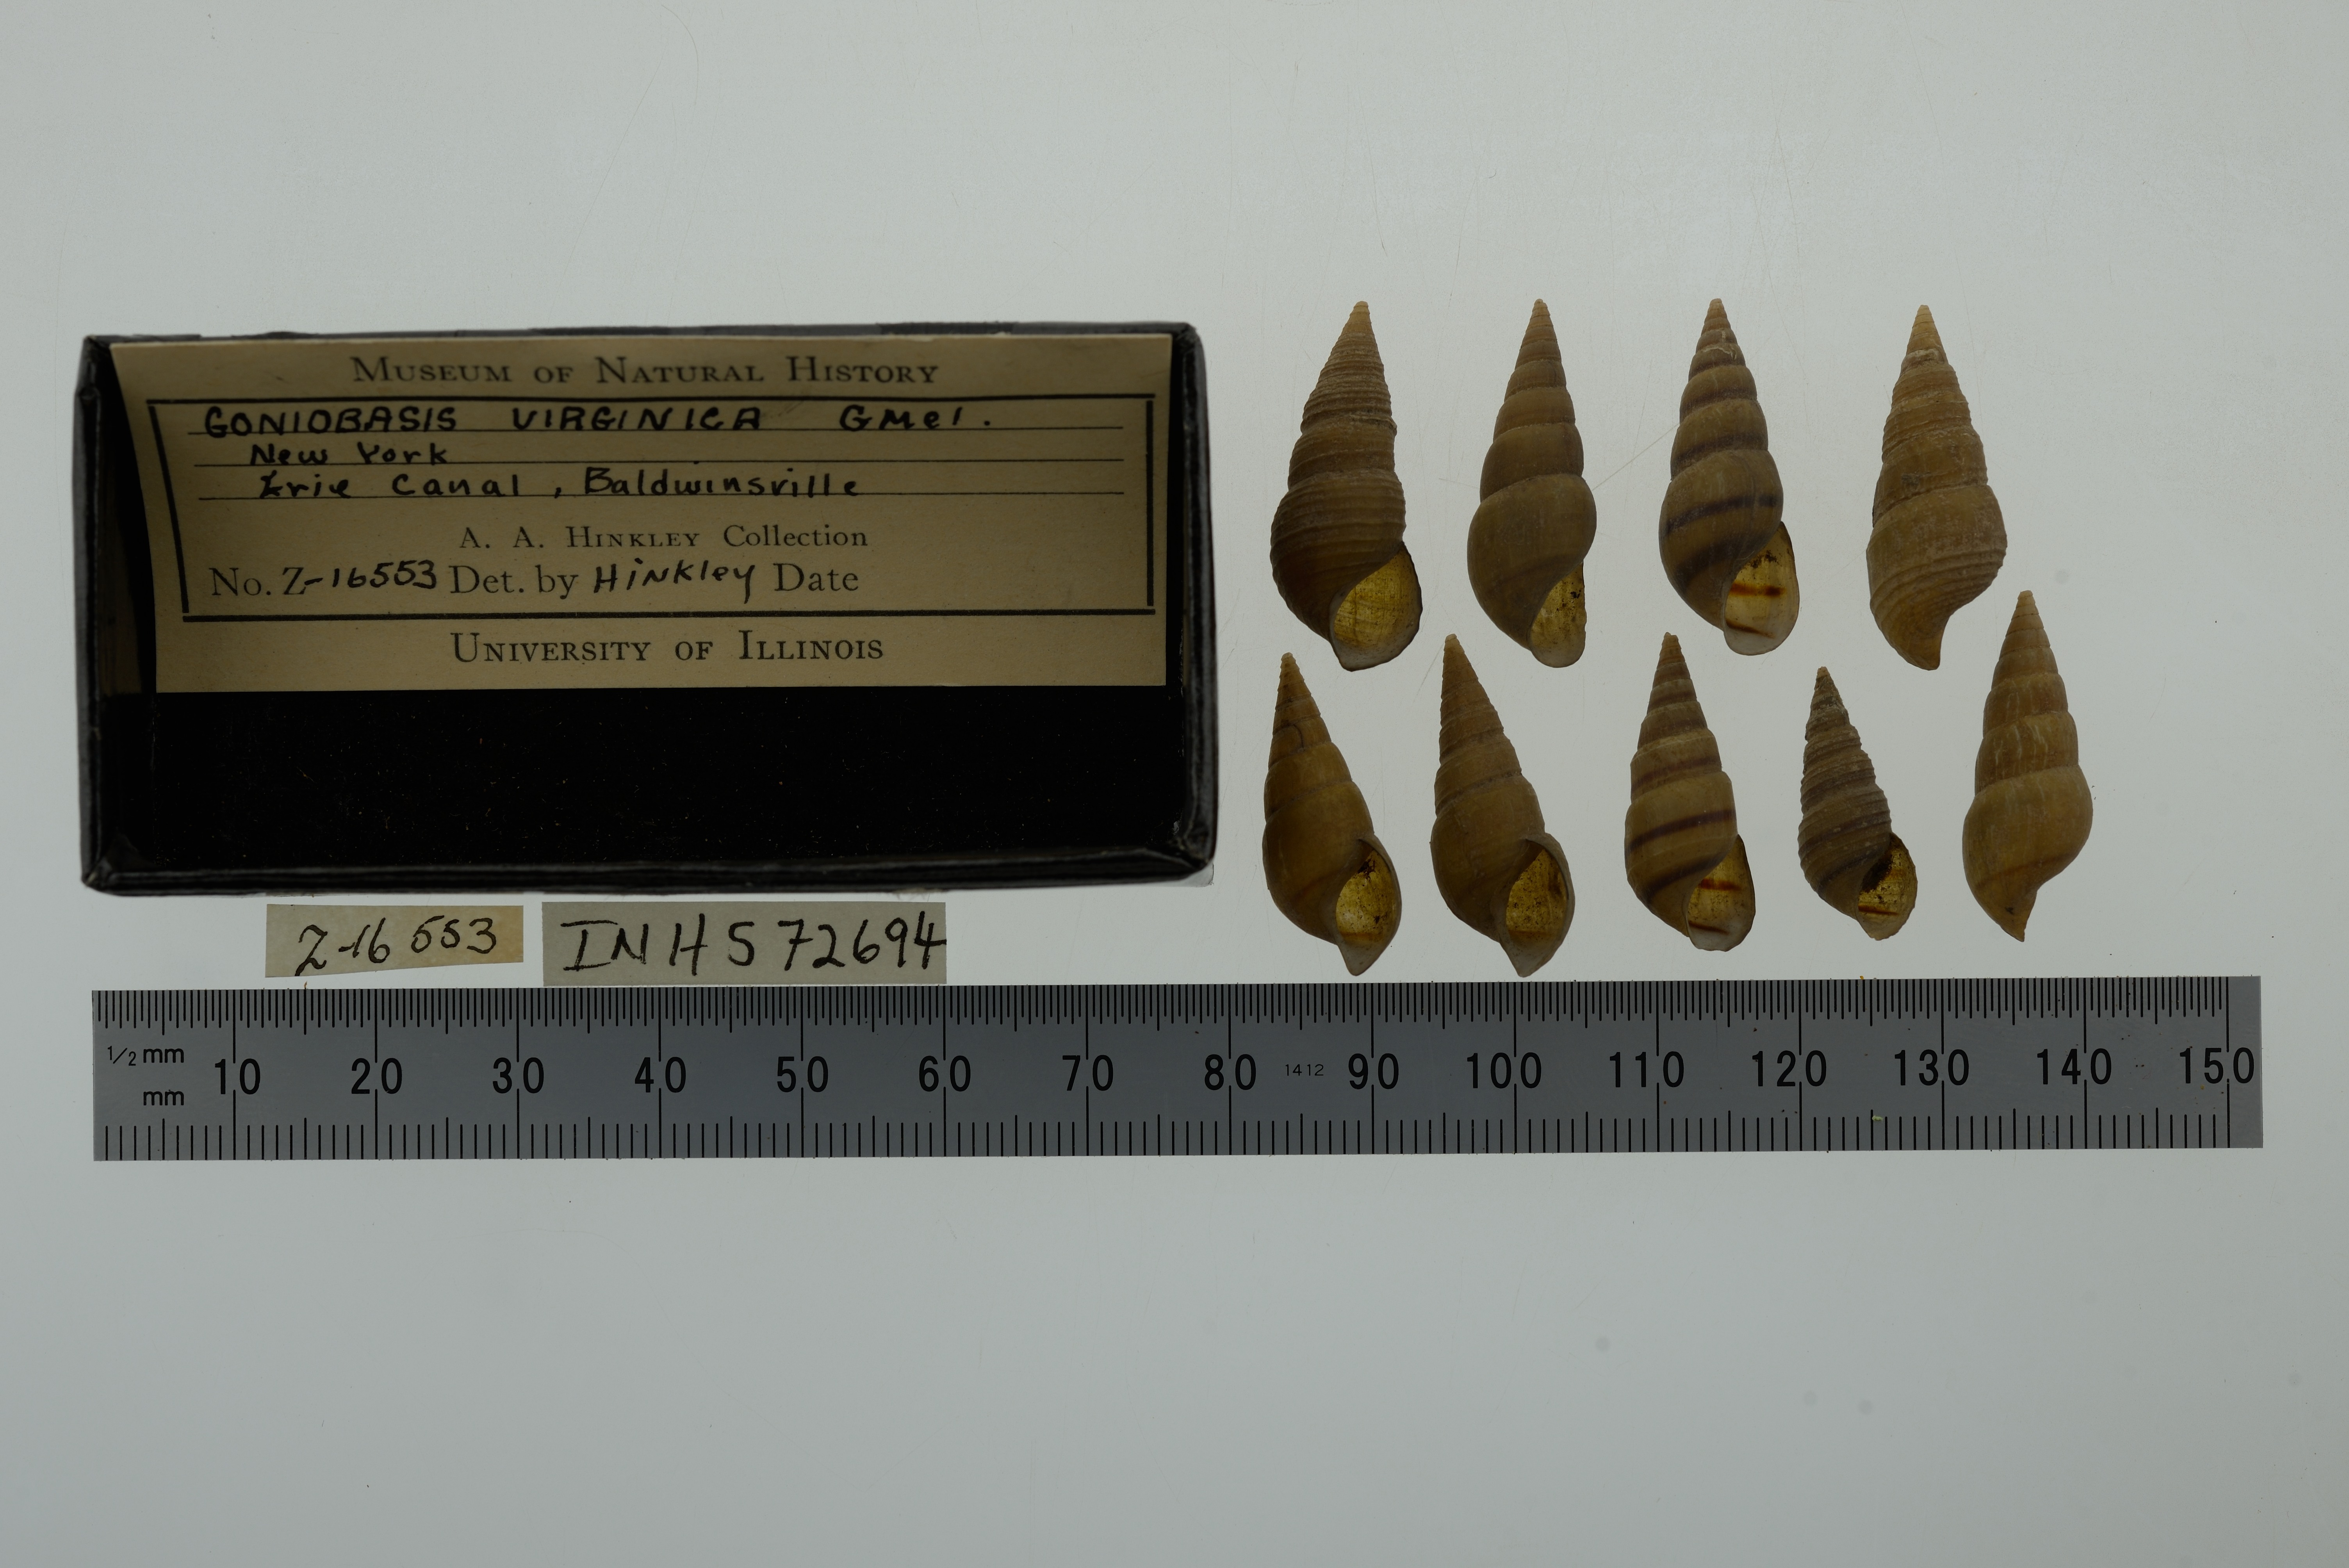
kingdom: Animalia
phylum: Mollusca
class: Gastropoda
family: Pleuroceridae
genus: Elimia
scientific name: Elimia virginica
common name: Piedmont elimia
